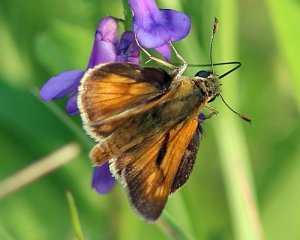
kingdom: Animalia
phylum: Arthropoda
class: Insecta
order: Lepidoptera
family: Hesperiidae
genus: Polites
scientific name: Polites coras
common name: Peck's Skipper
